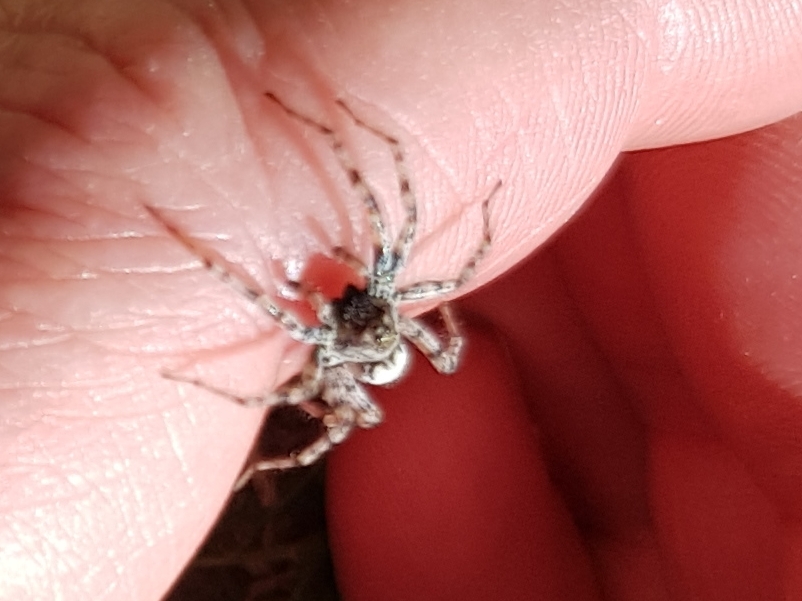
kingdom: Animalia
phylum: Arthropoda
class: Arachnida
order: Araneae
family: Lycosidae
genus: Arctosa
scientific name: Arctosa
